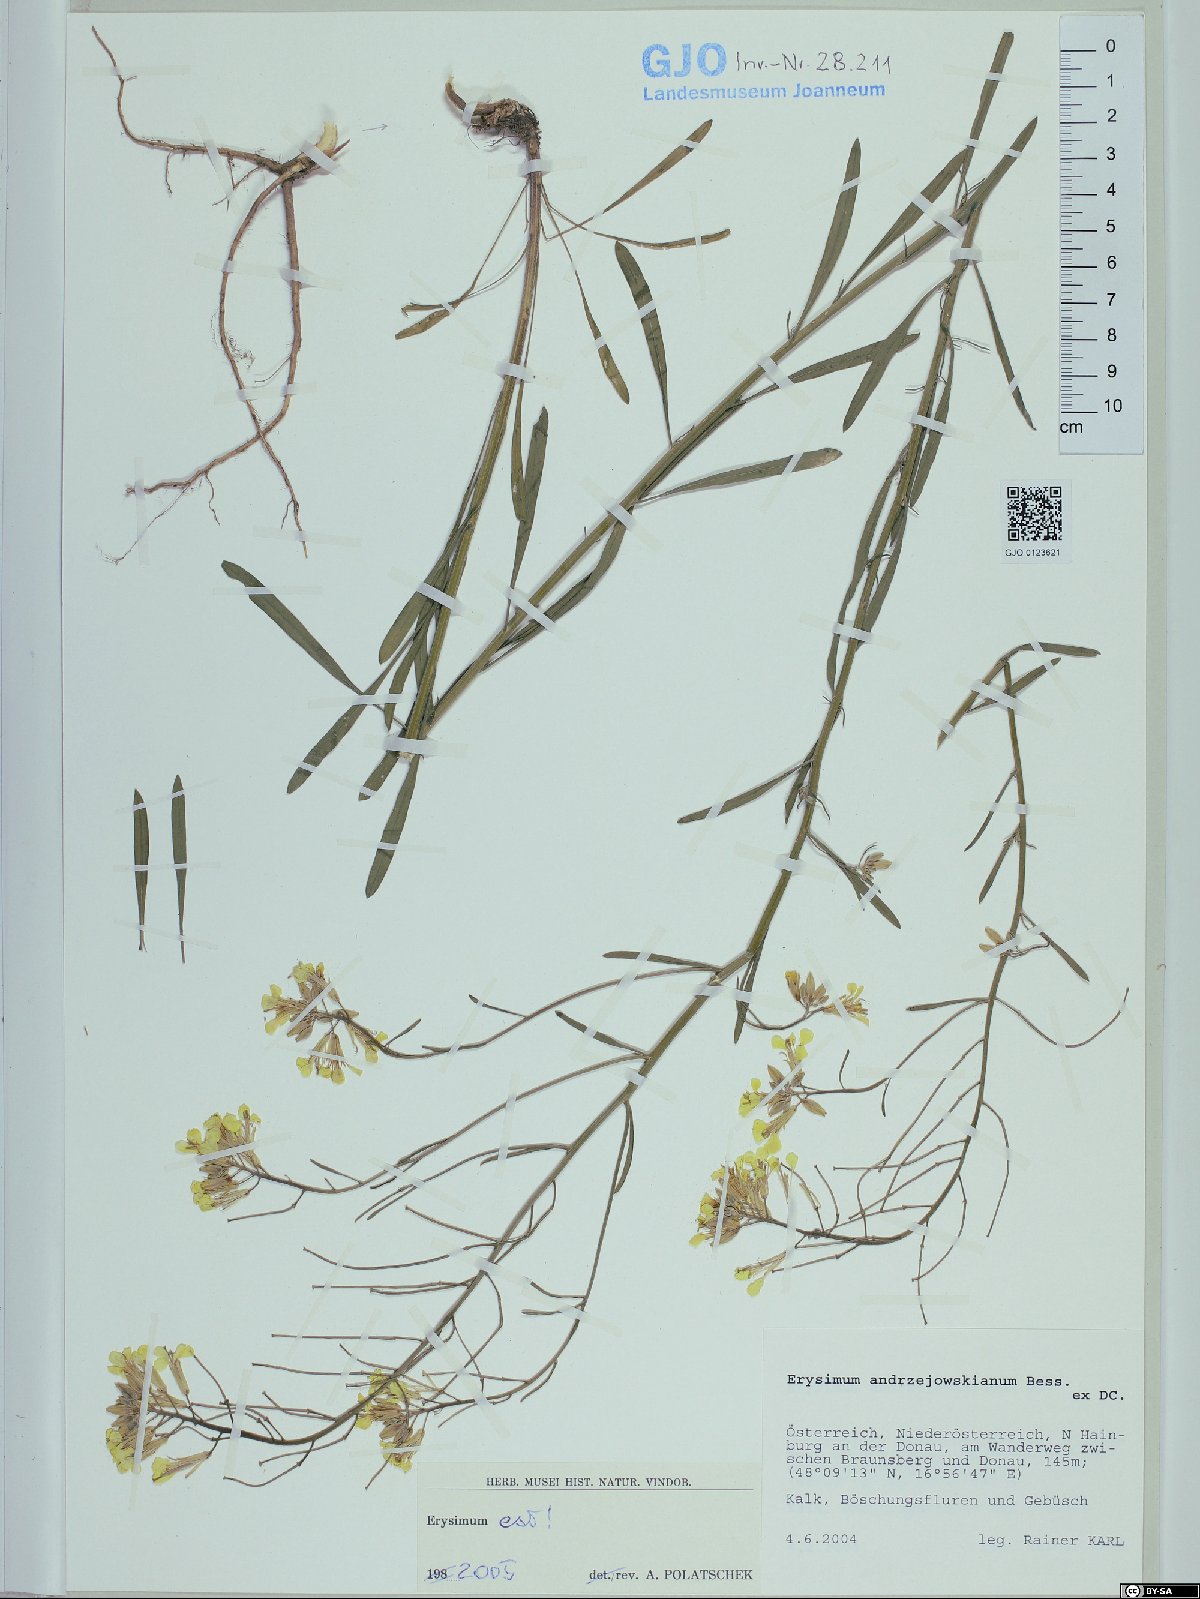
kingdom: Plantae
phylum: Tracheophyta
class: Magnoliopsida
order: Brassicales
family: Brassicaceae
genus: Erysimum
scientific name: Erysimum andrzejowskianum
